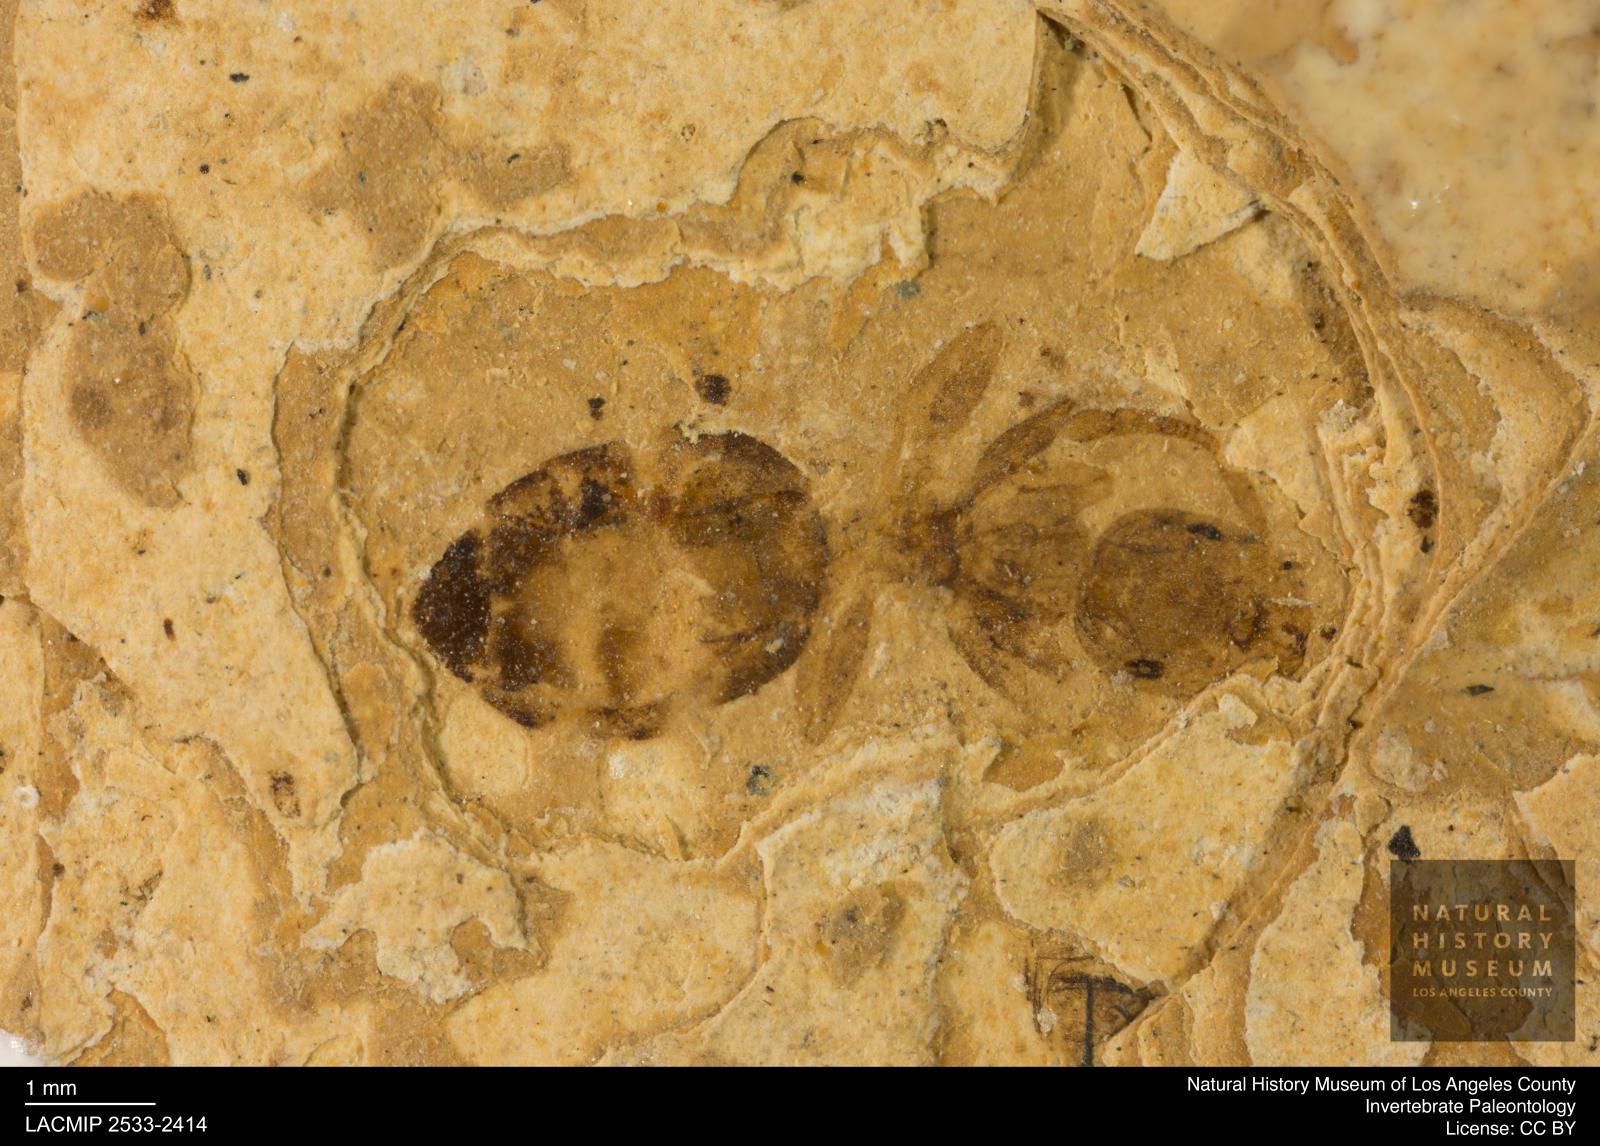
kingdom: Animalia
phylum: Arthropoda
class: Insecta
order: Hymenoptera
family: Formicidae
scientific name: Formicidae
